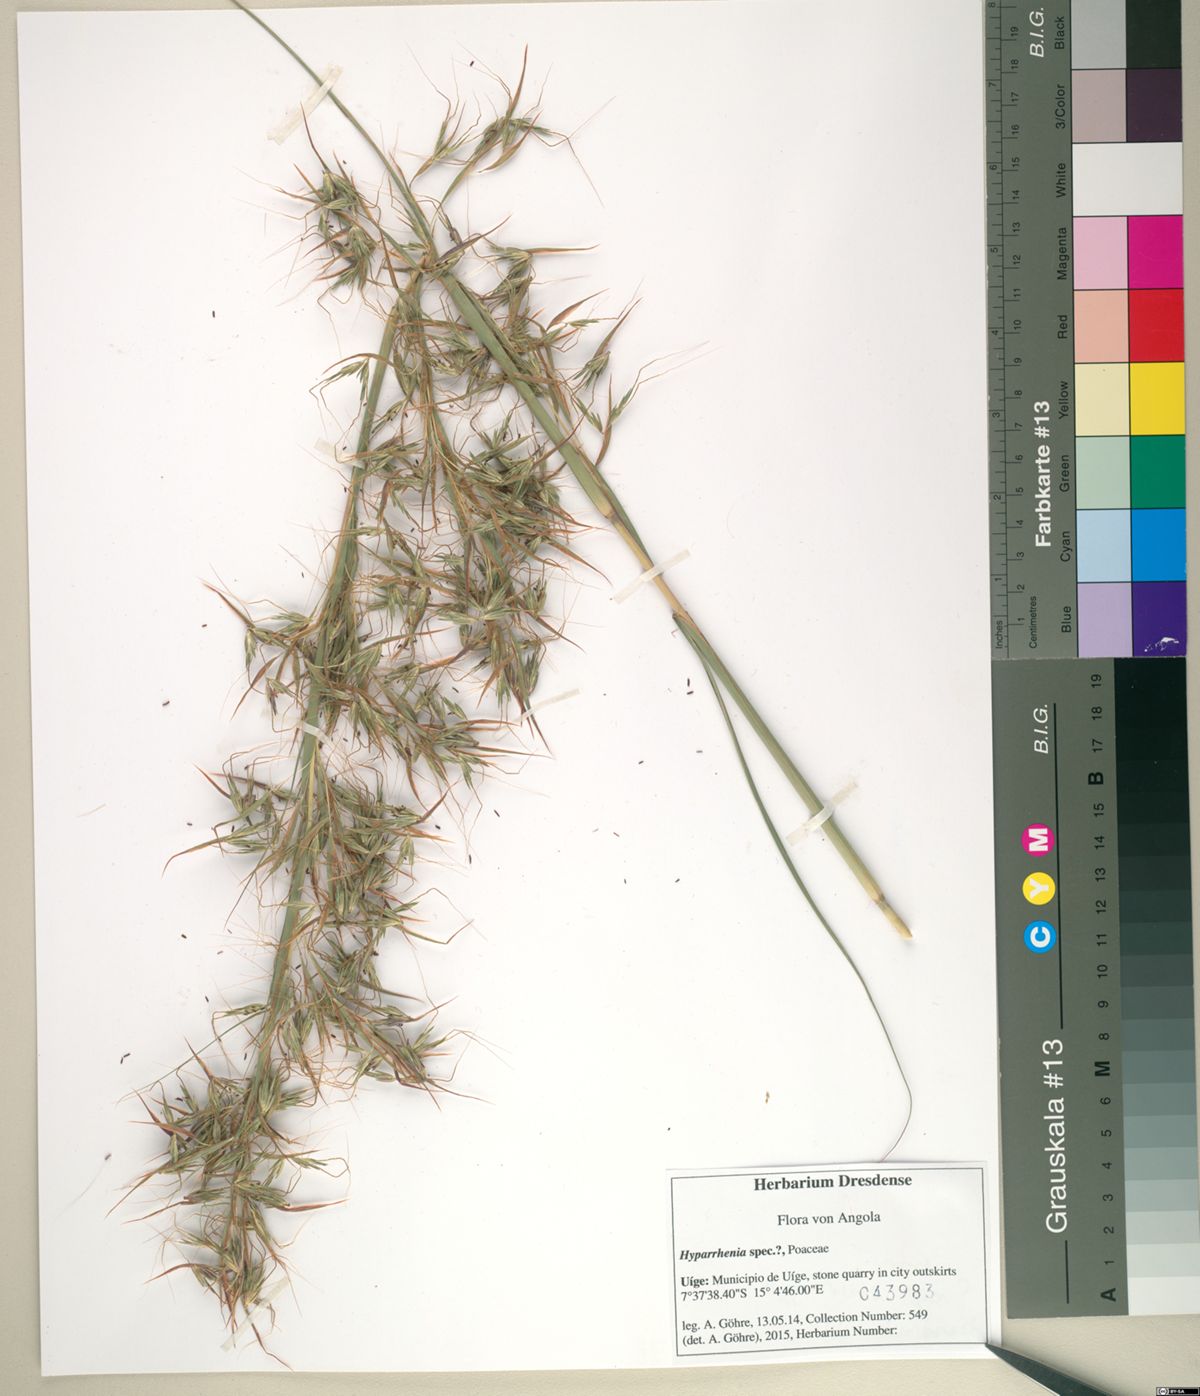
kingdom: Plantae
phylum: Tracheophyta
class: Liliopsida
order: Poales
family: Poaceae
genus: Hyparrhenia
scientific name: Hyparrhenia diplandra
